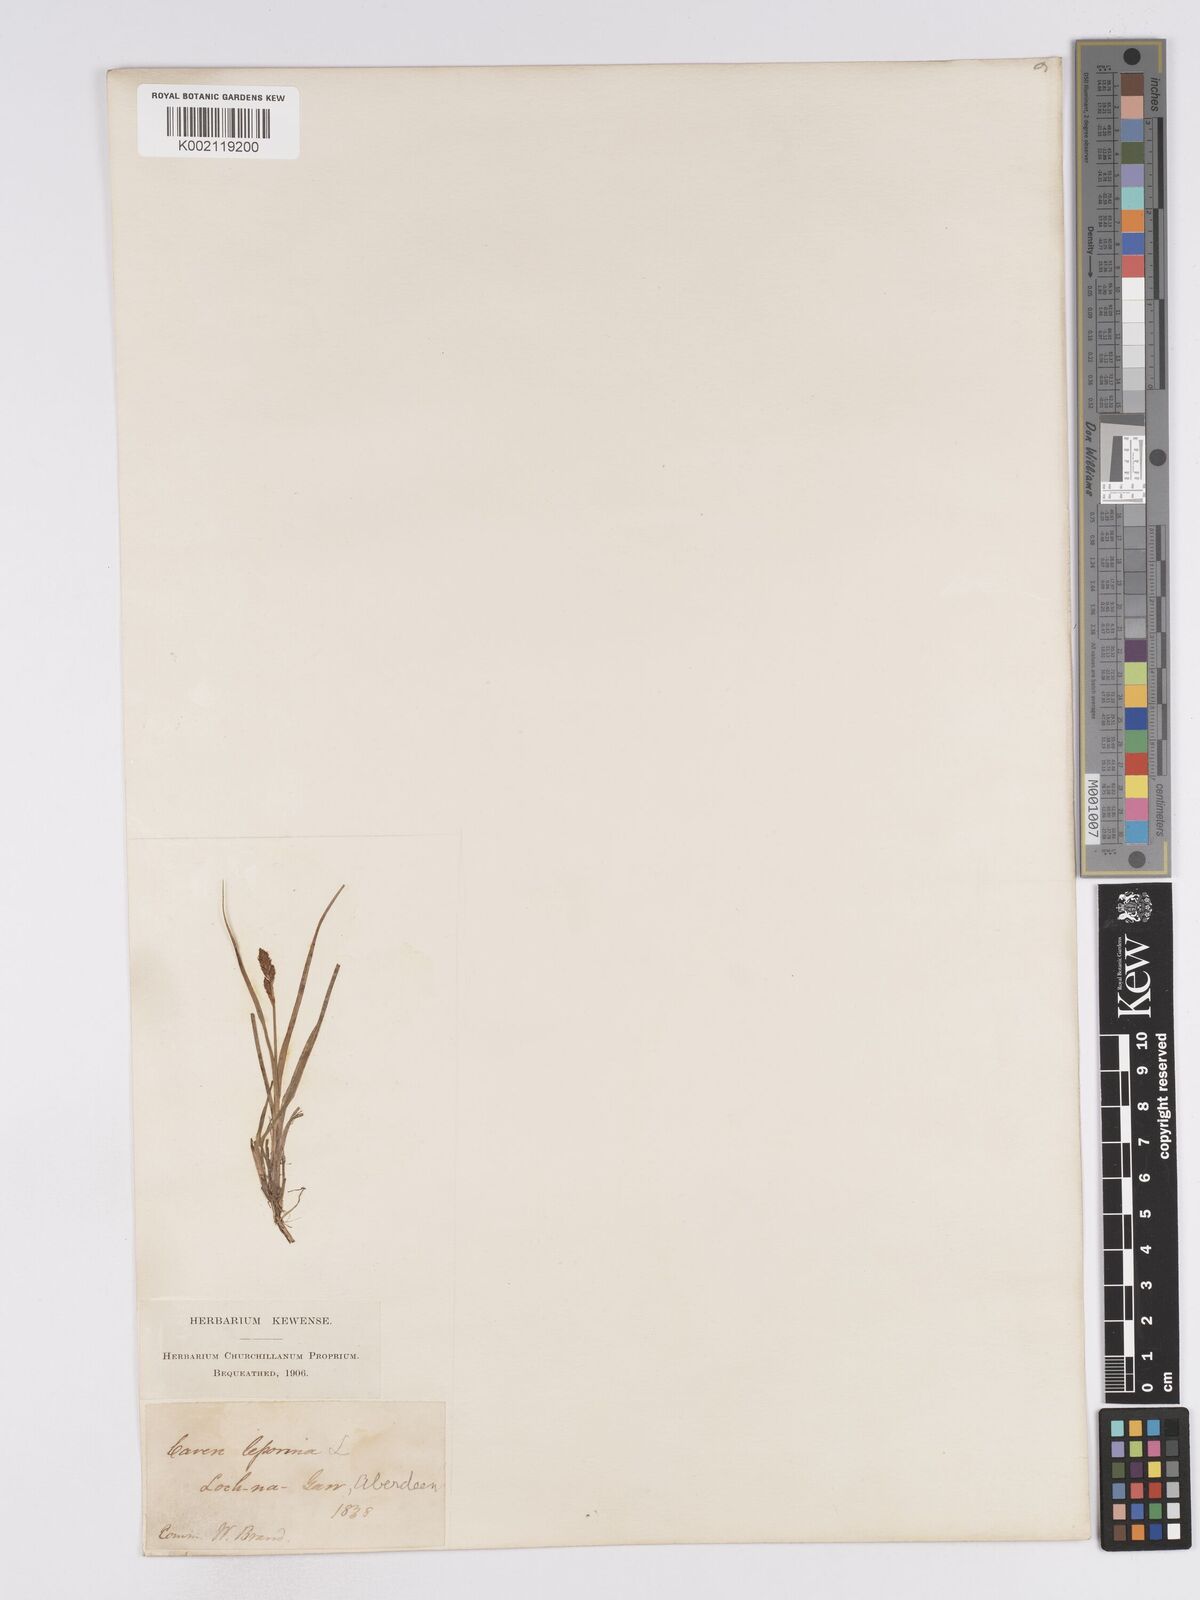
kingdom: Plantae
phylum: Tracheophyta
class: Liliopsida
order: Poales
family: Cyperaceae
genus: Carex
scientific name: Carex lachenalii
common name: Hare's-foot sedge
